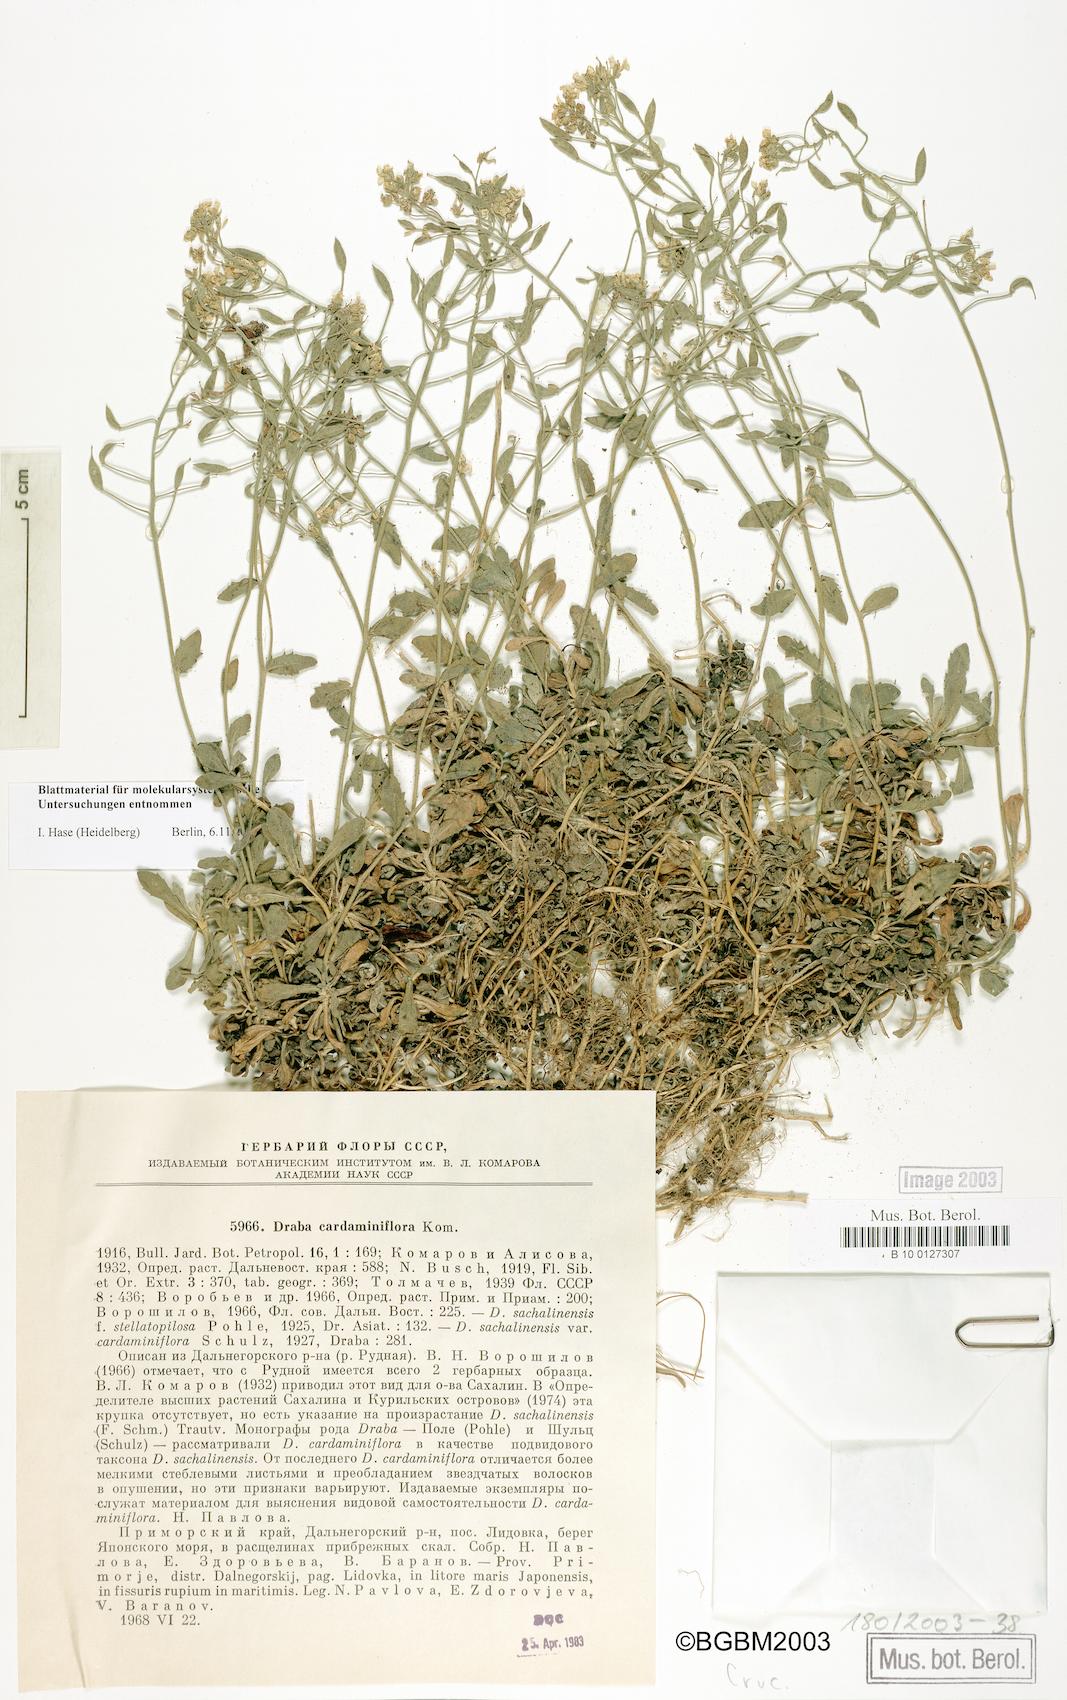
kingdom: Plantae
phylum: Tracheophyta
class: Magnoliopsida
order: Brassicales
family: Brassicaceae
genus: Draba
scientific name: Draba cardaminiflora
